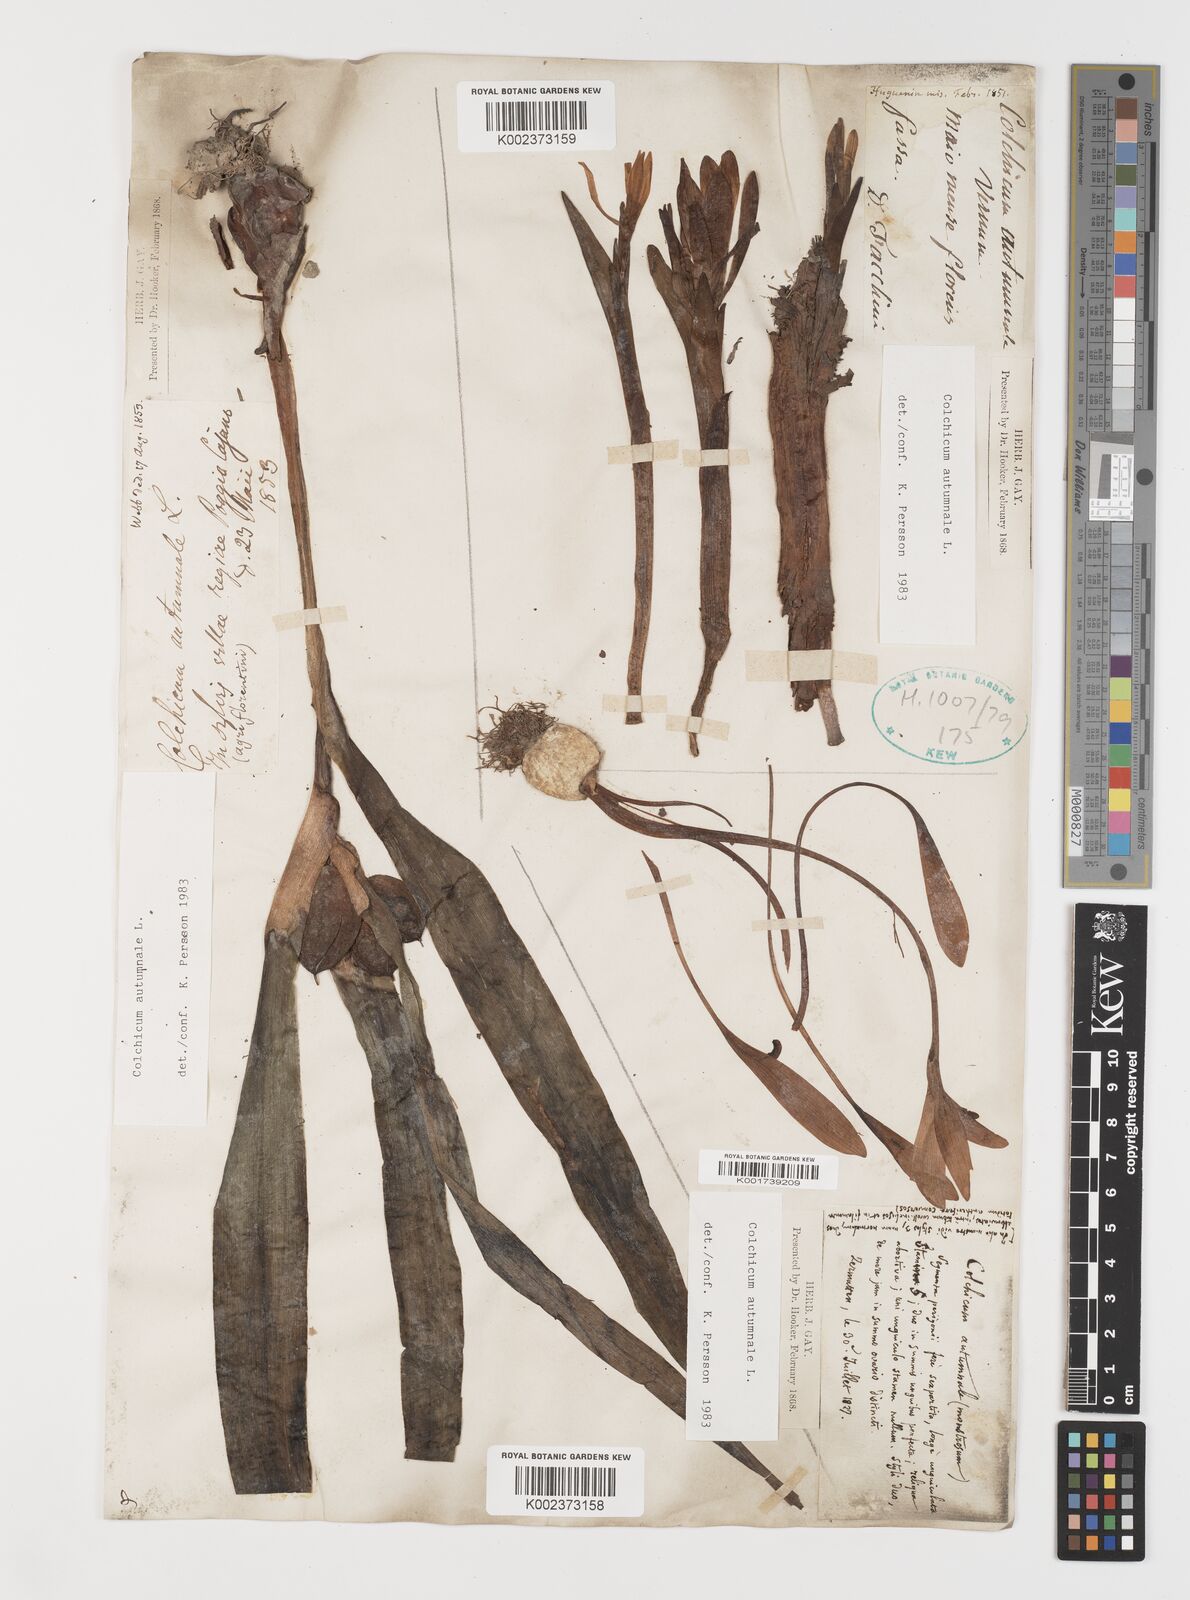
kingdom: Plantae
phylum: Tracheophyta
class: Liliopsida
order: Liliales
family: Colchicaceae
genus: Colchicum
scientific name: Colchicum autumnale
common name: Autumn crocus
